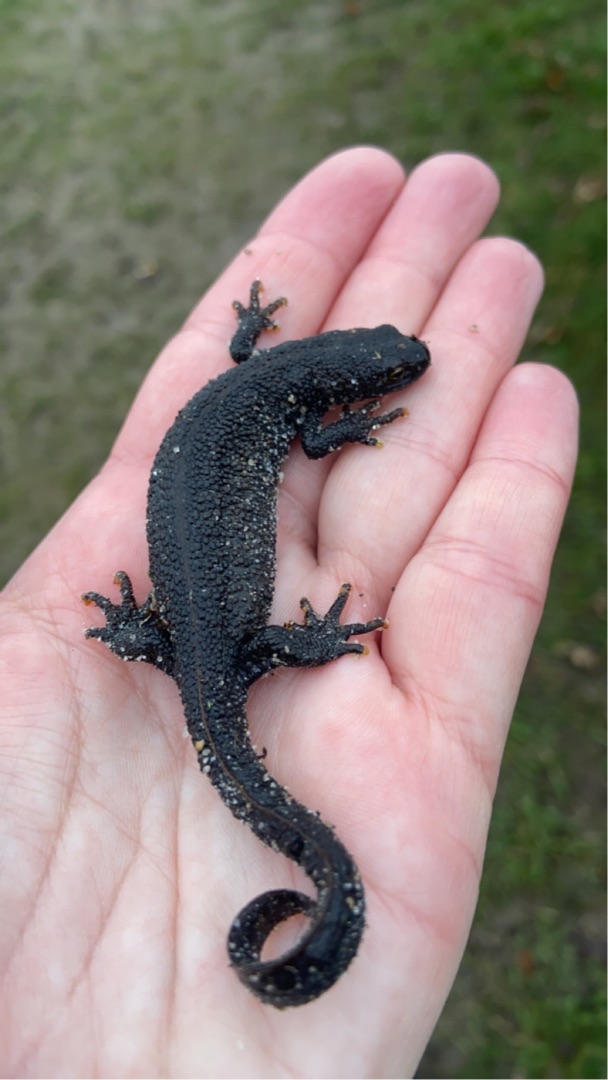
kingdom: Animalia
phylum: Chordata
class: Amphibia
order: Caudata
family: Salamandridae
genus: Triturus
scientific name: Triturus cristatus
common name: Stor vandsalamander
